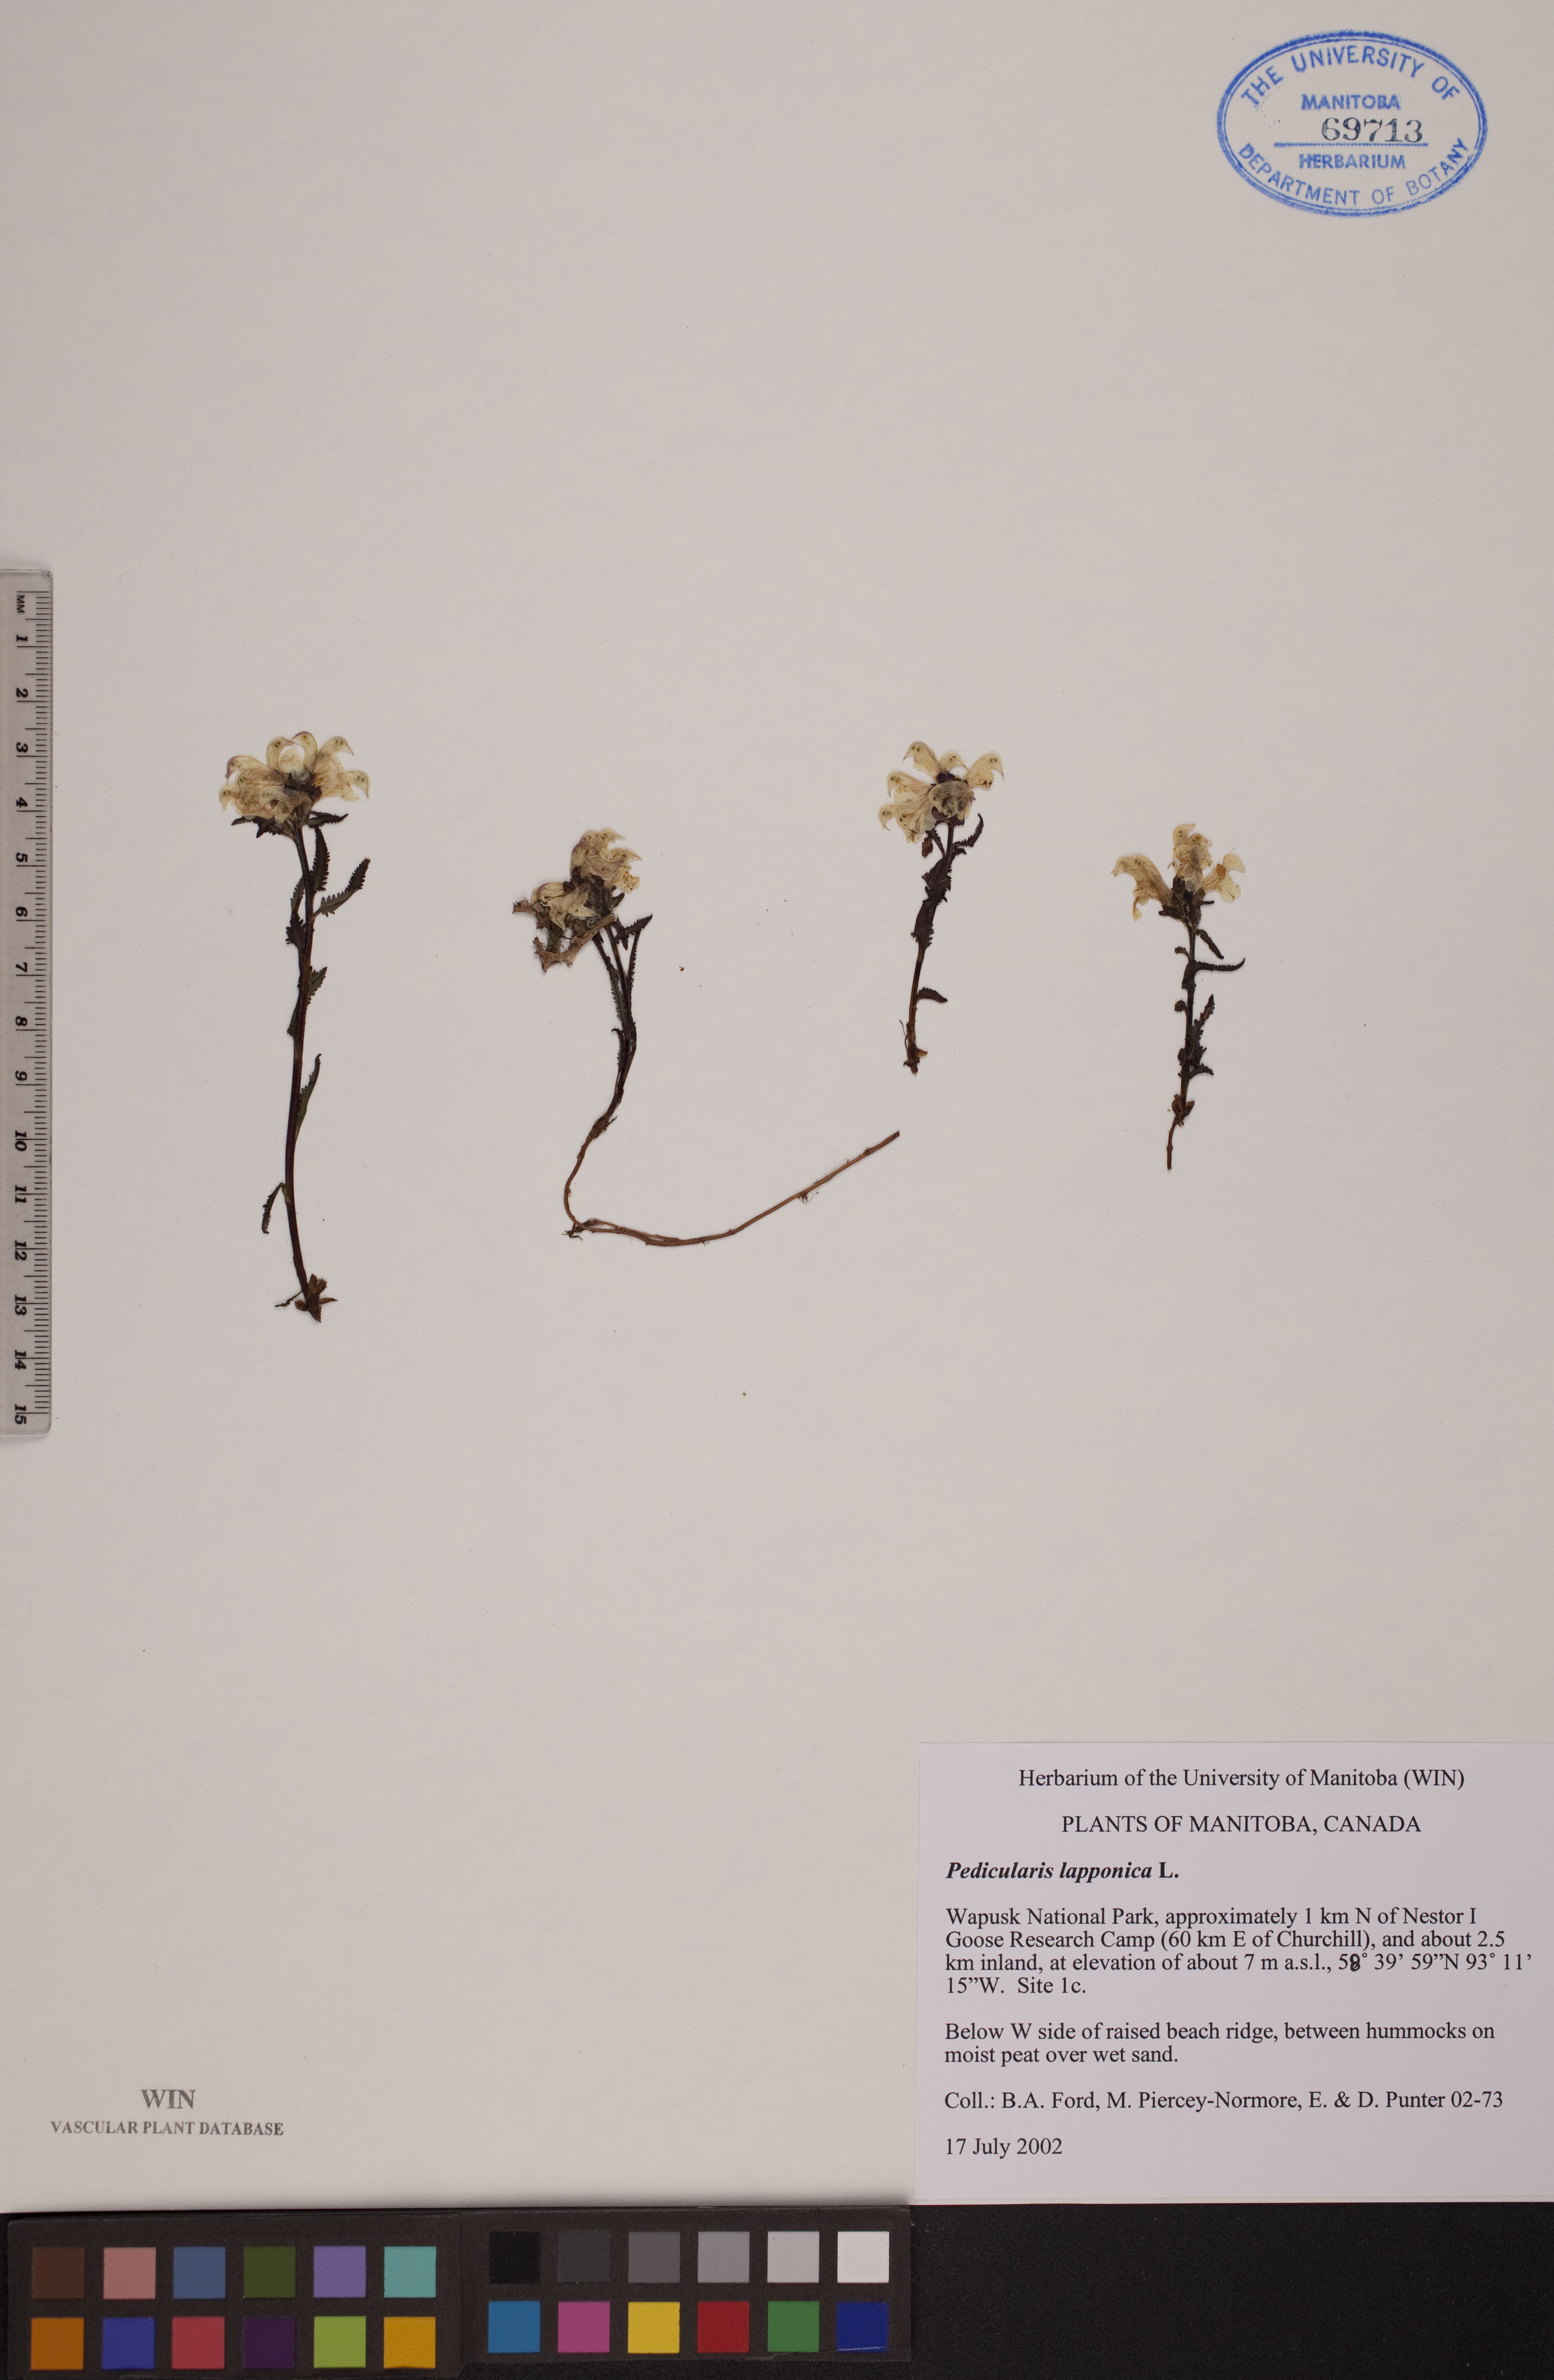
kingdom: Plantae
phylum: Tracheophyta
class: Magnoliopsida
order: Lamiales
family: Orobanchaceae
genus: Pedicularis
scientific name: Pedicularis lapponica
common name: Lapland lousewort
